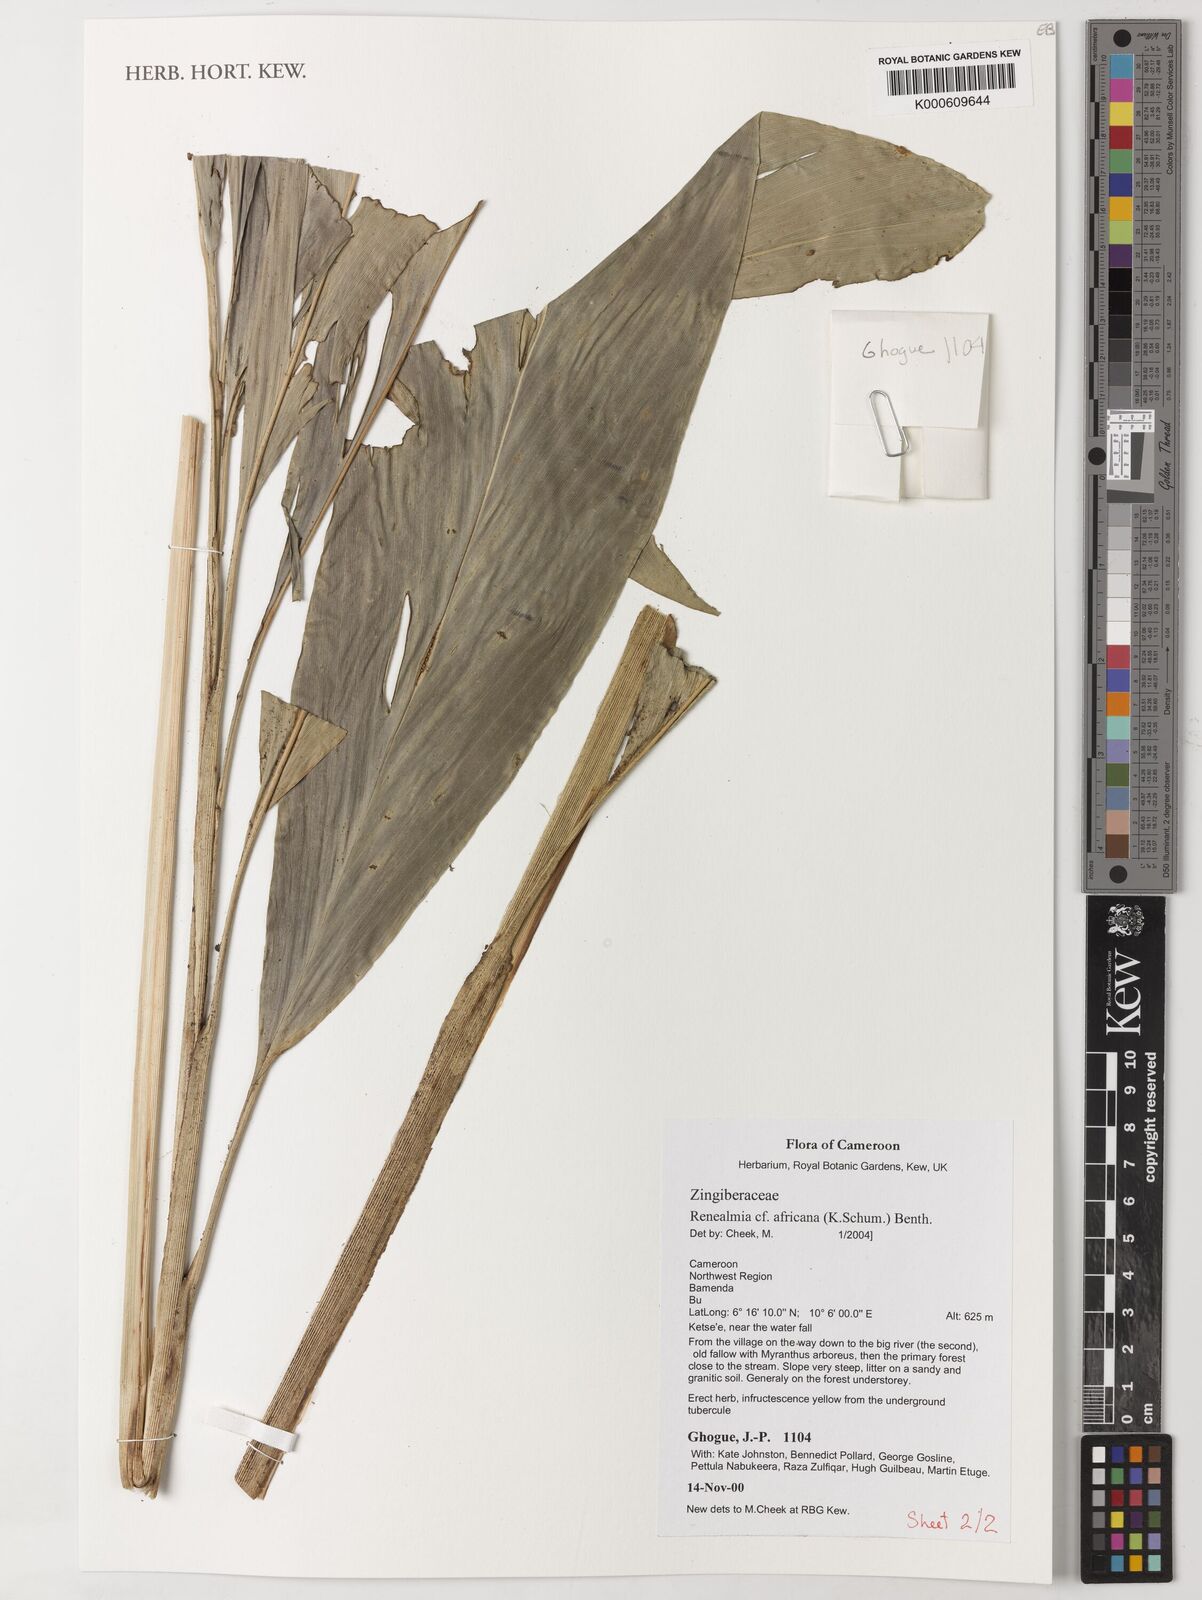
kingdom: Plantae
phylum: Tracheophyta
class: Liliopsida
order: Zingiberales
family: Zingiberaceae
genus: Renealmia
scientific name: Renealmia africana
